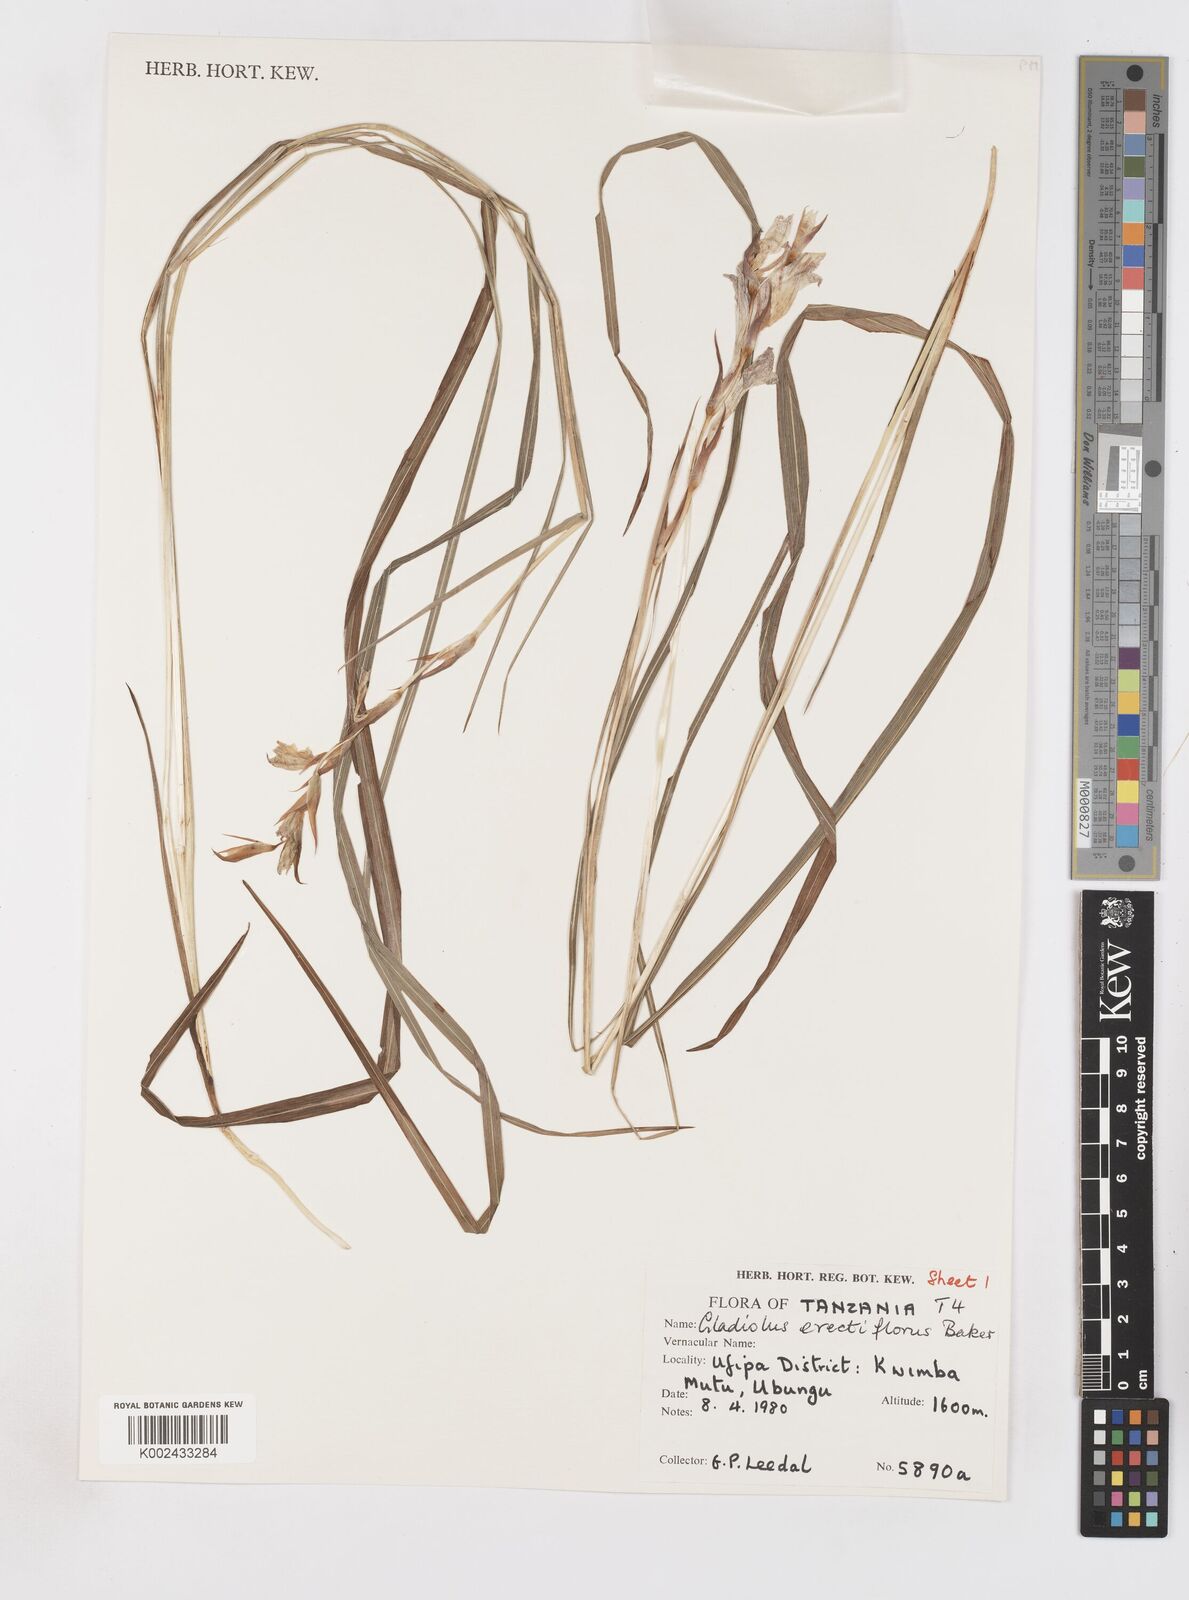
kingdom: Plantae
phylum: Tracheophyta
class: Liliopsida
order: Asparagales
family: Iridaceae
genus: Gladiolus
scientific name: Gladiolus erectiflorus
